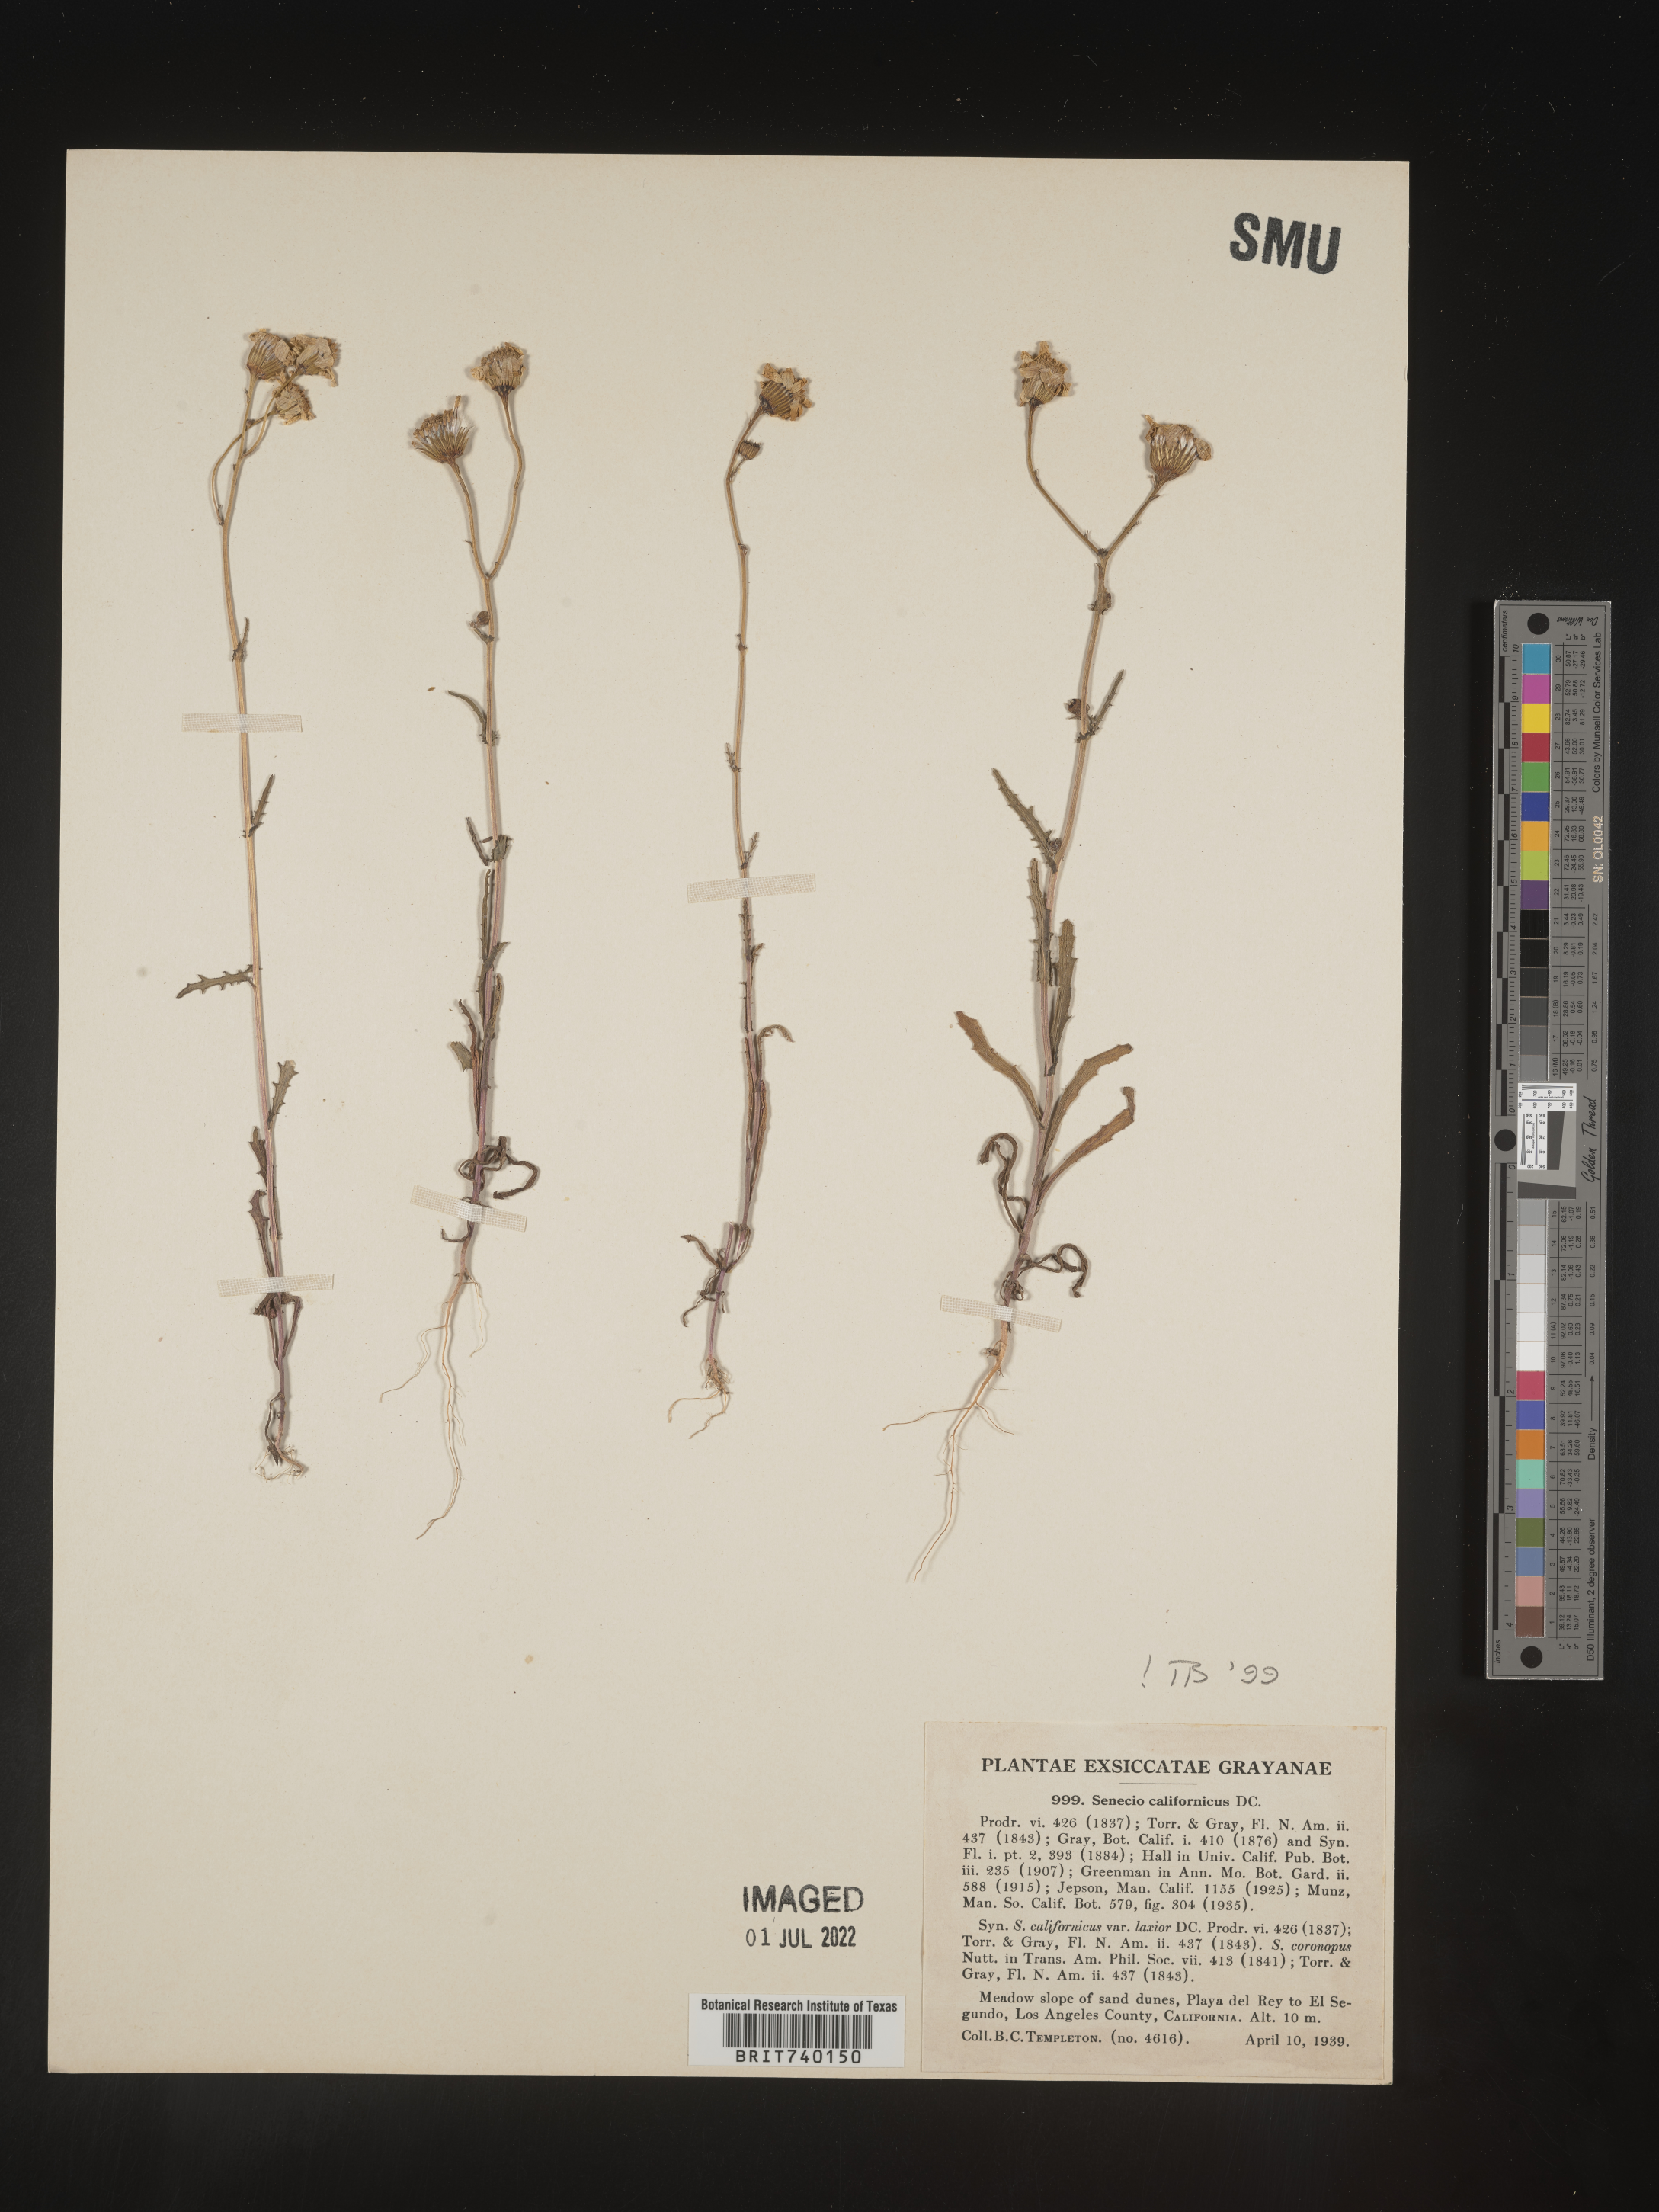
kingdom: Plantae
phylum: Tracheophyta
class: Magnoliopsida
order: Asterales
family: Asteraceae
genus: Senecio
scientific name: Senecio californicus
